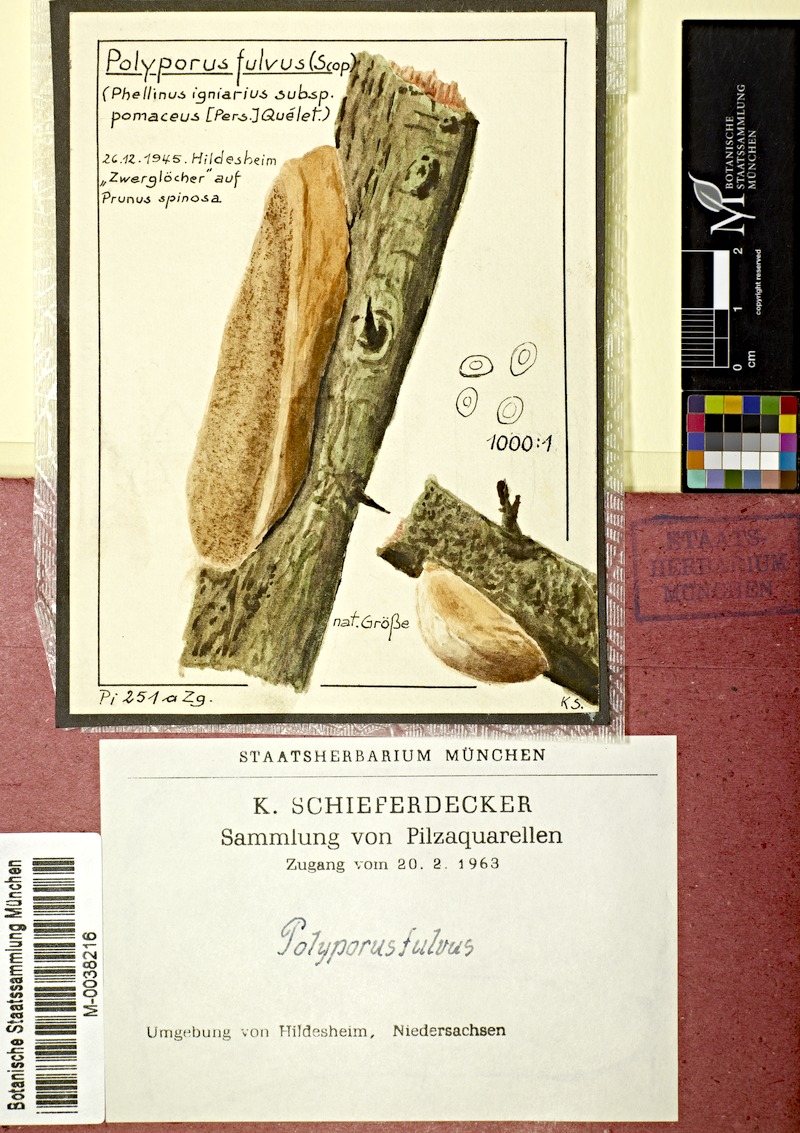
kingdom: Plantae
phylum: Tracheophyta
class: Magnoliopsida
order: Rosales
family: Rosaceae
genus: Prunus
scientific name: Prunus spinosa
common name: Blackthorn
